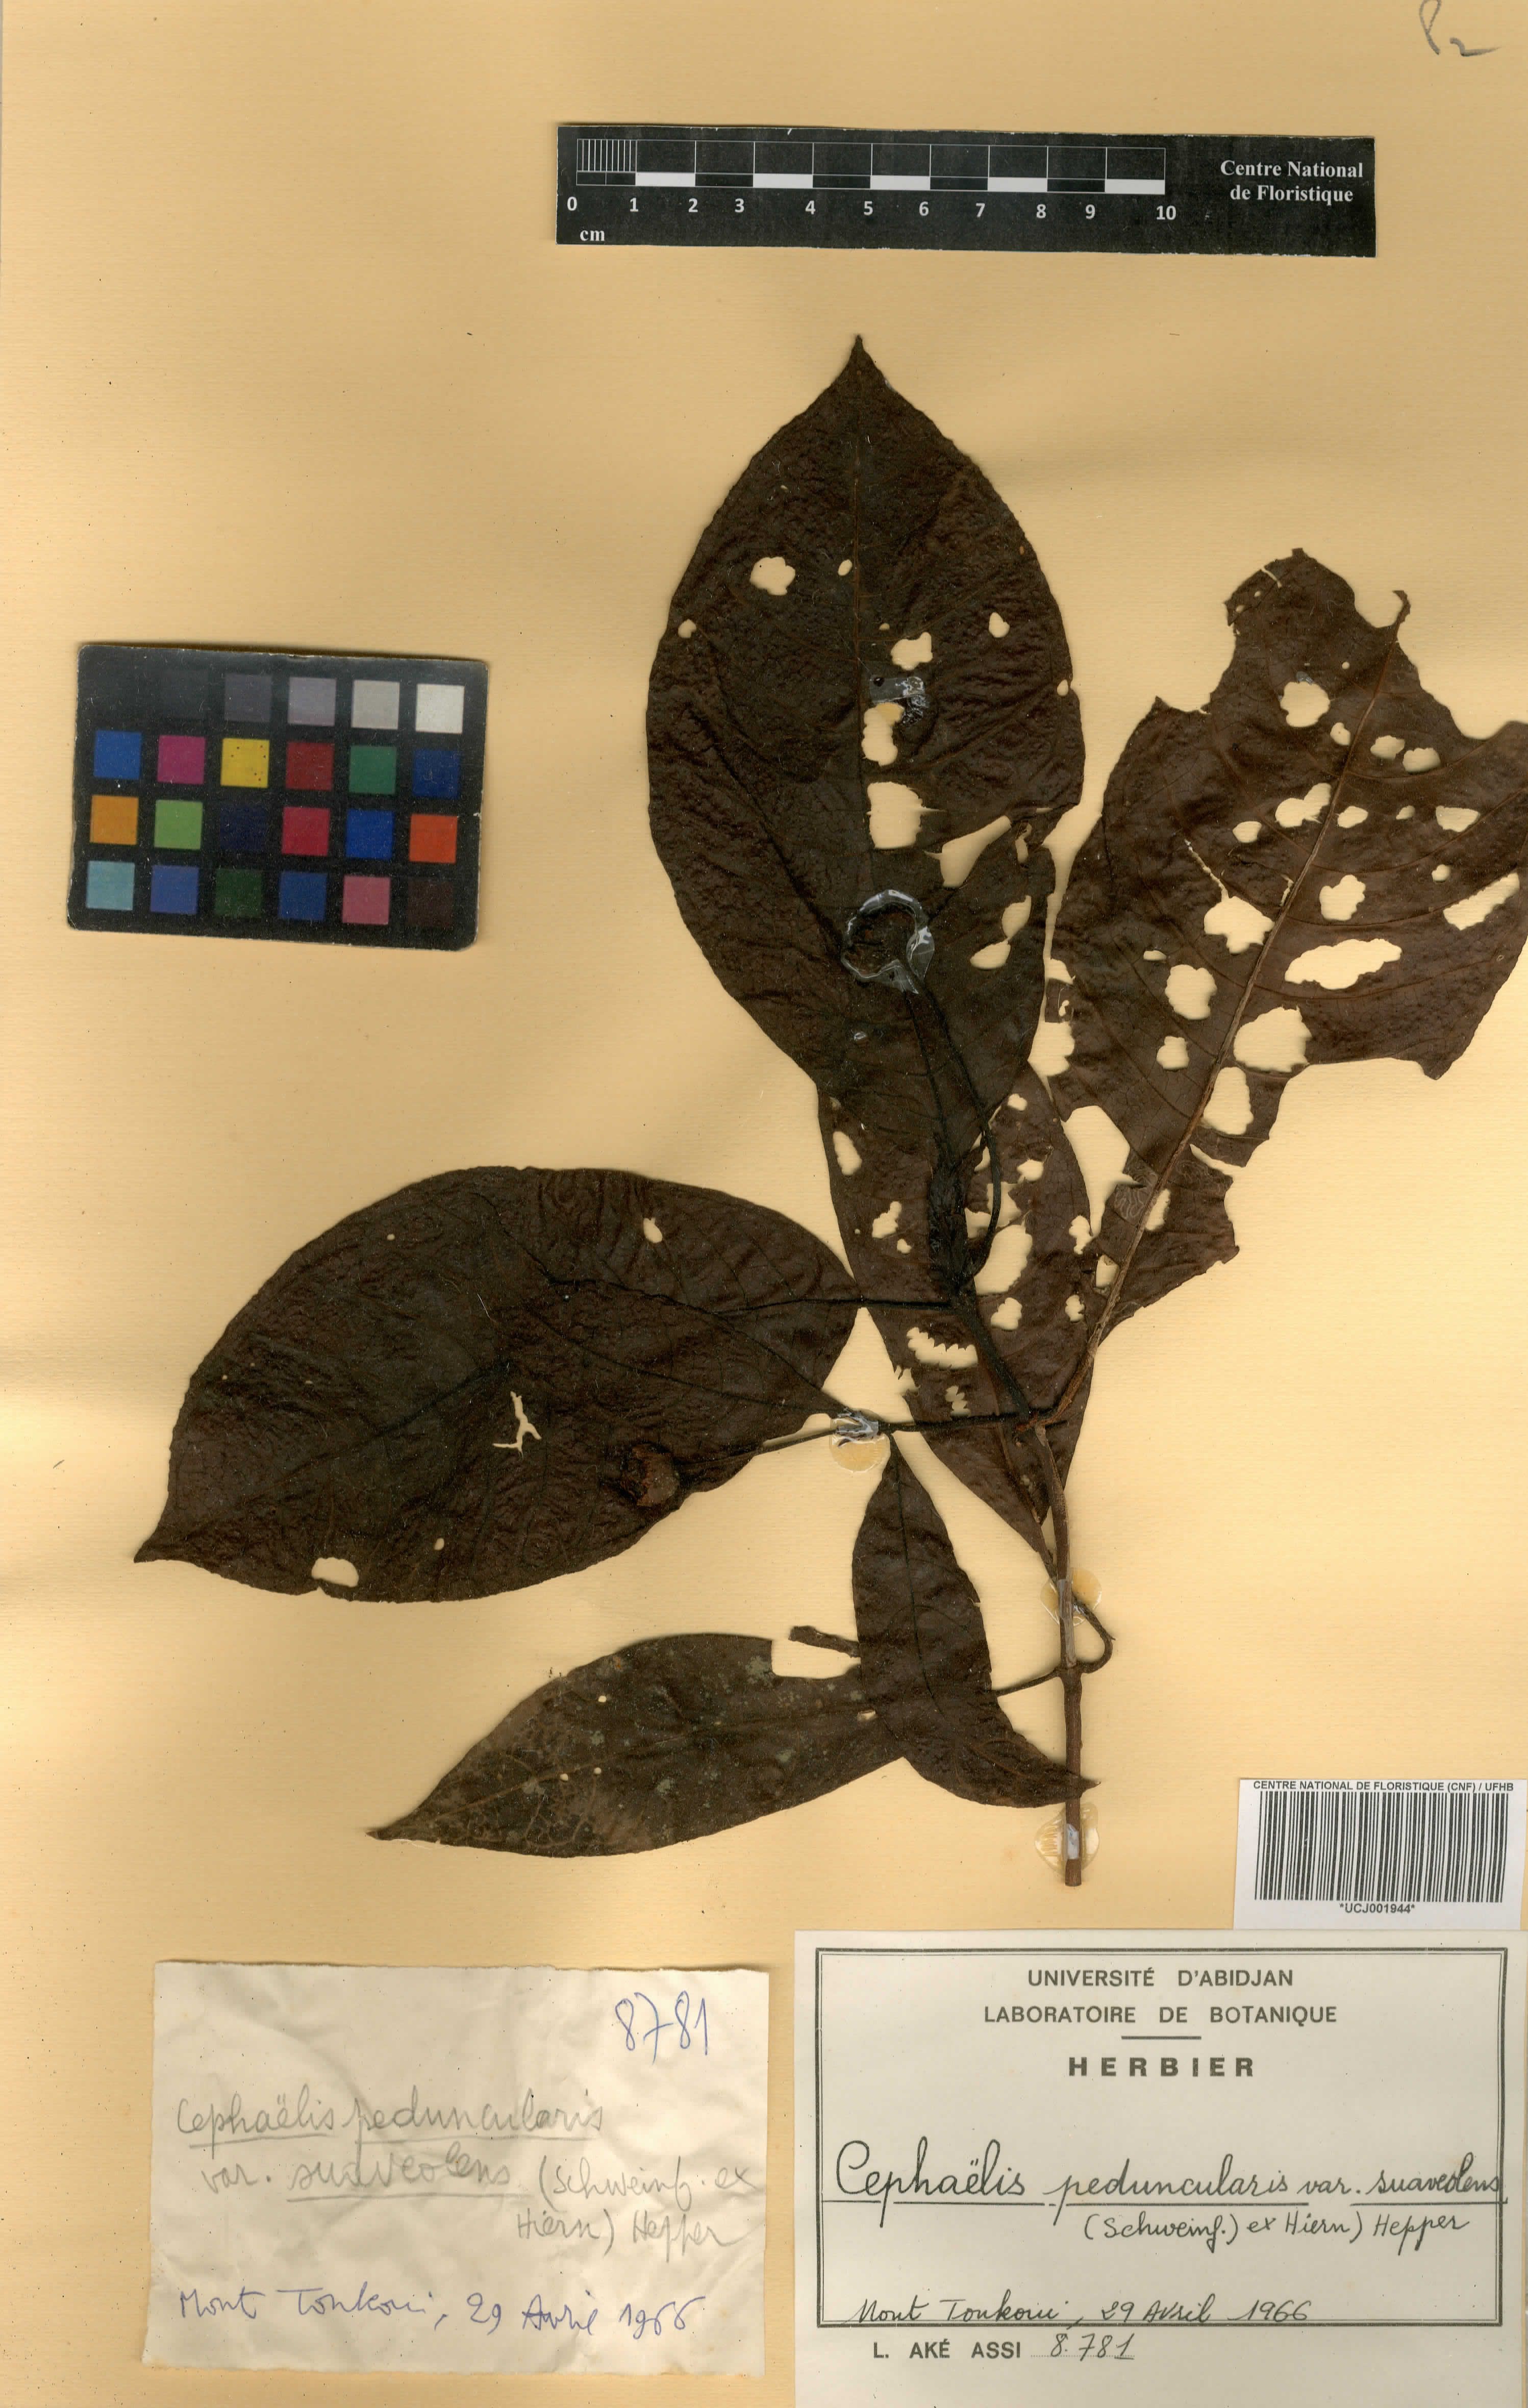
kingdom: Plantae
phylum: Tracheophyta
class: Magnoliopsida
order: Gentianales
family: Rubiaceae
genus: Psychotria
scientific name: Psychotria peduncularis
